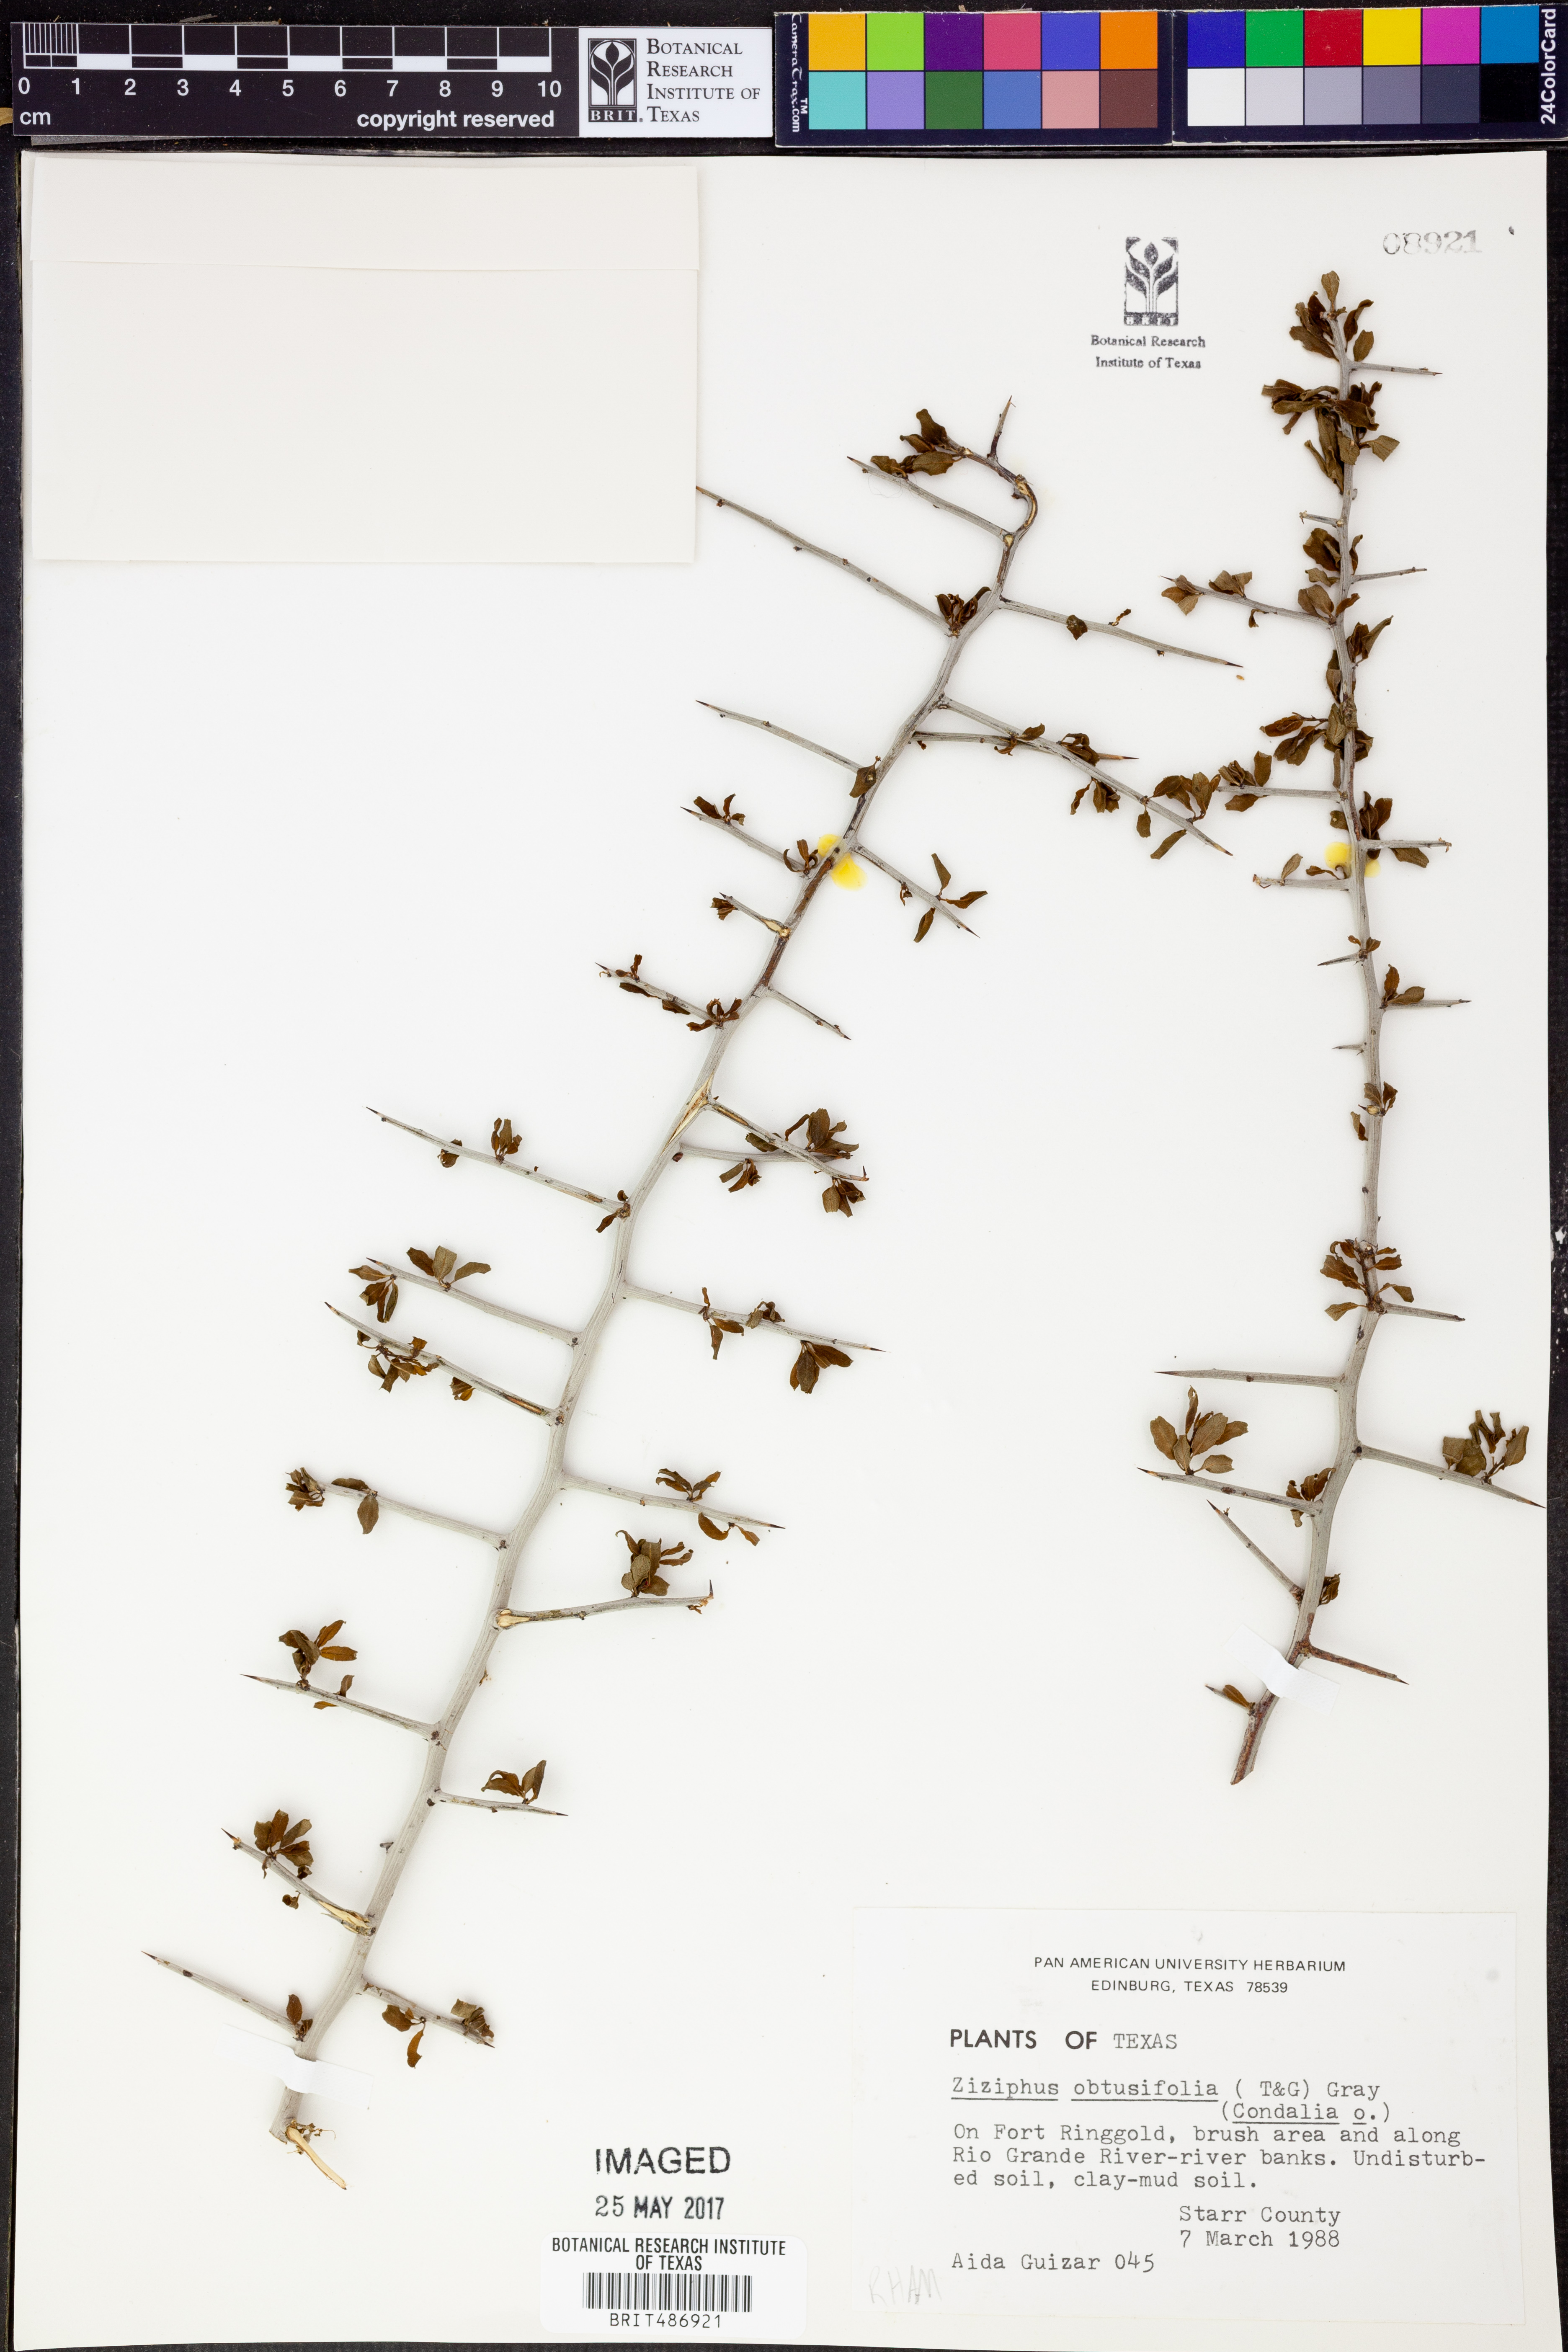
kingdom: Plantae
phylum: Tracheophyta
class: Magnoliopsida
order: Rosales
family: Rhamnaceae
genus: Sarcomphalus
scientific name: Sarcomphalus obtusifolius
